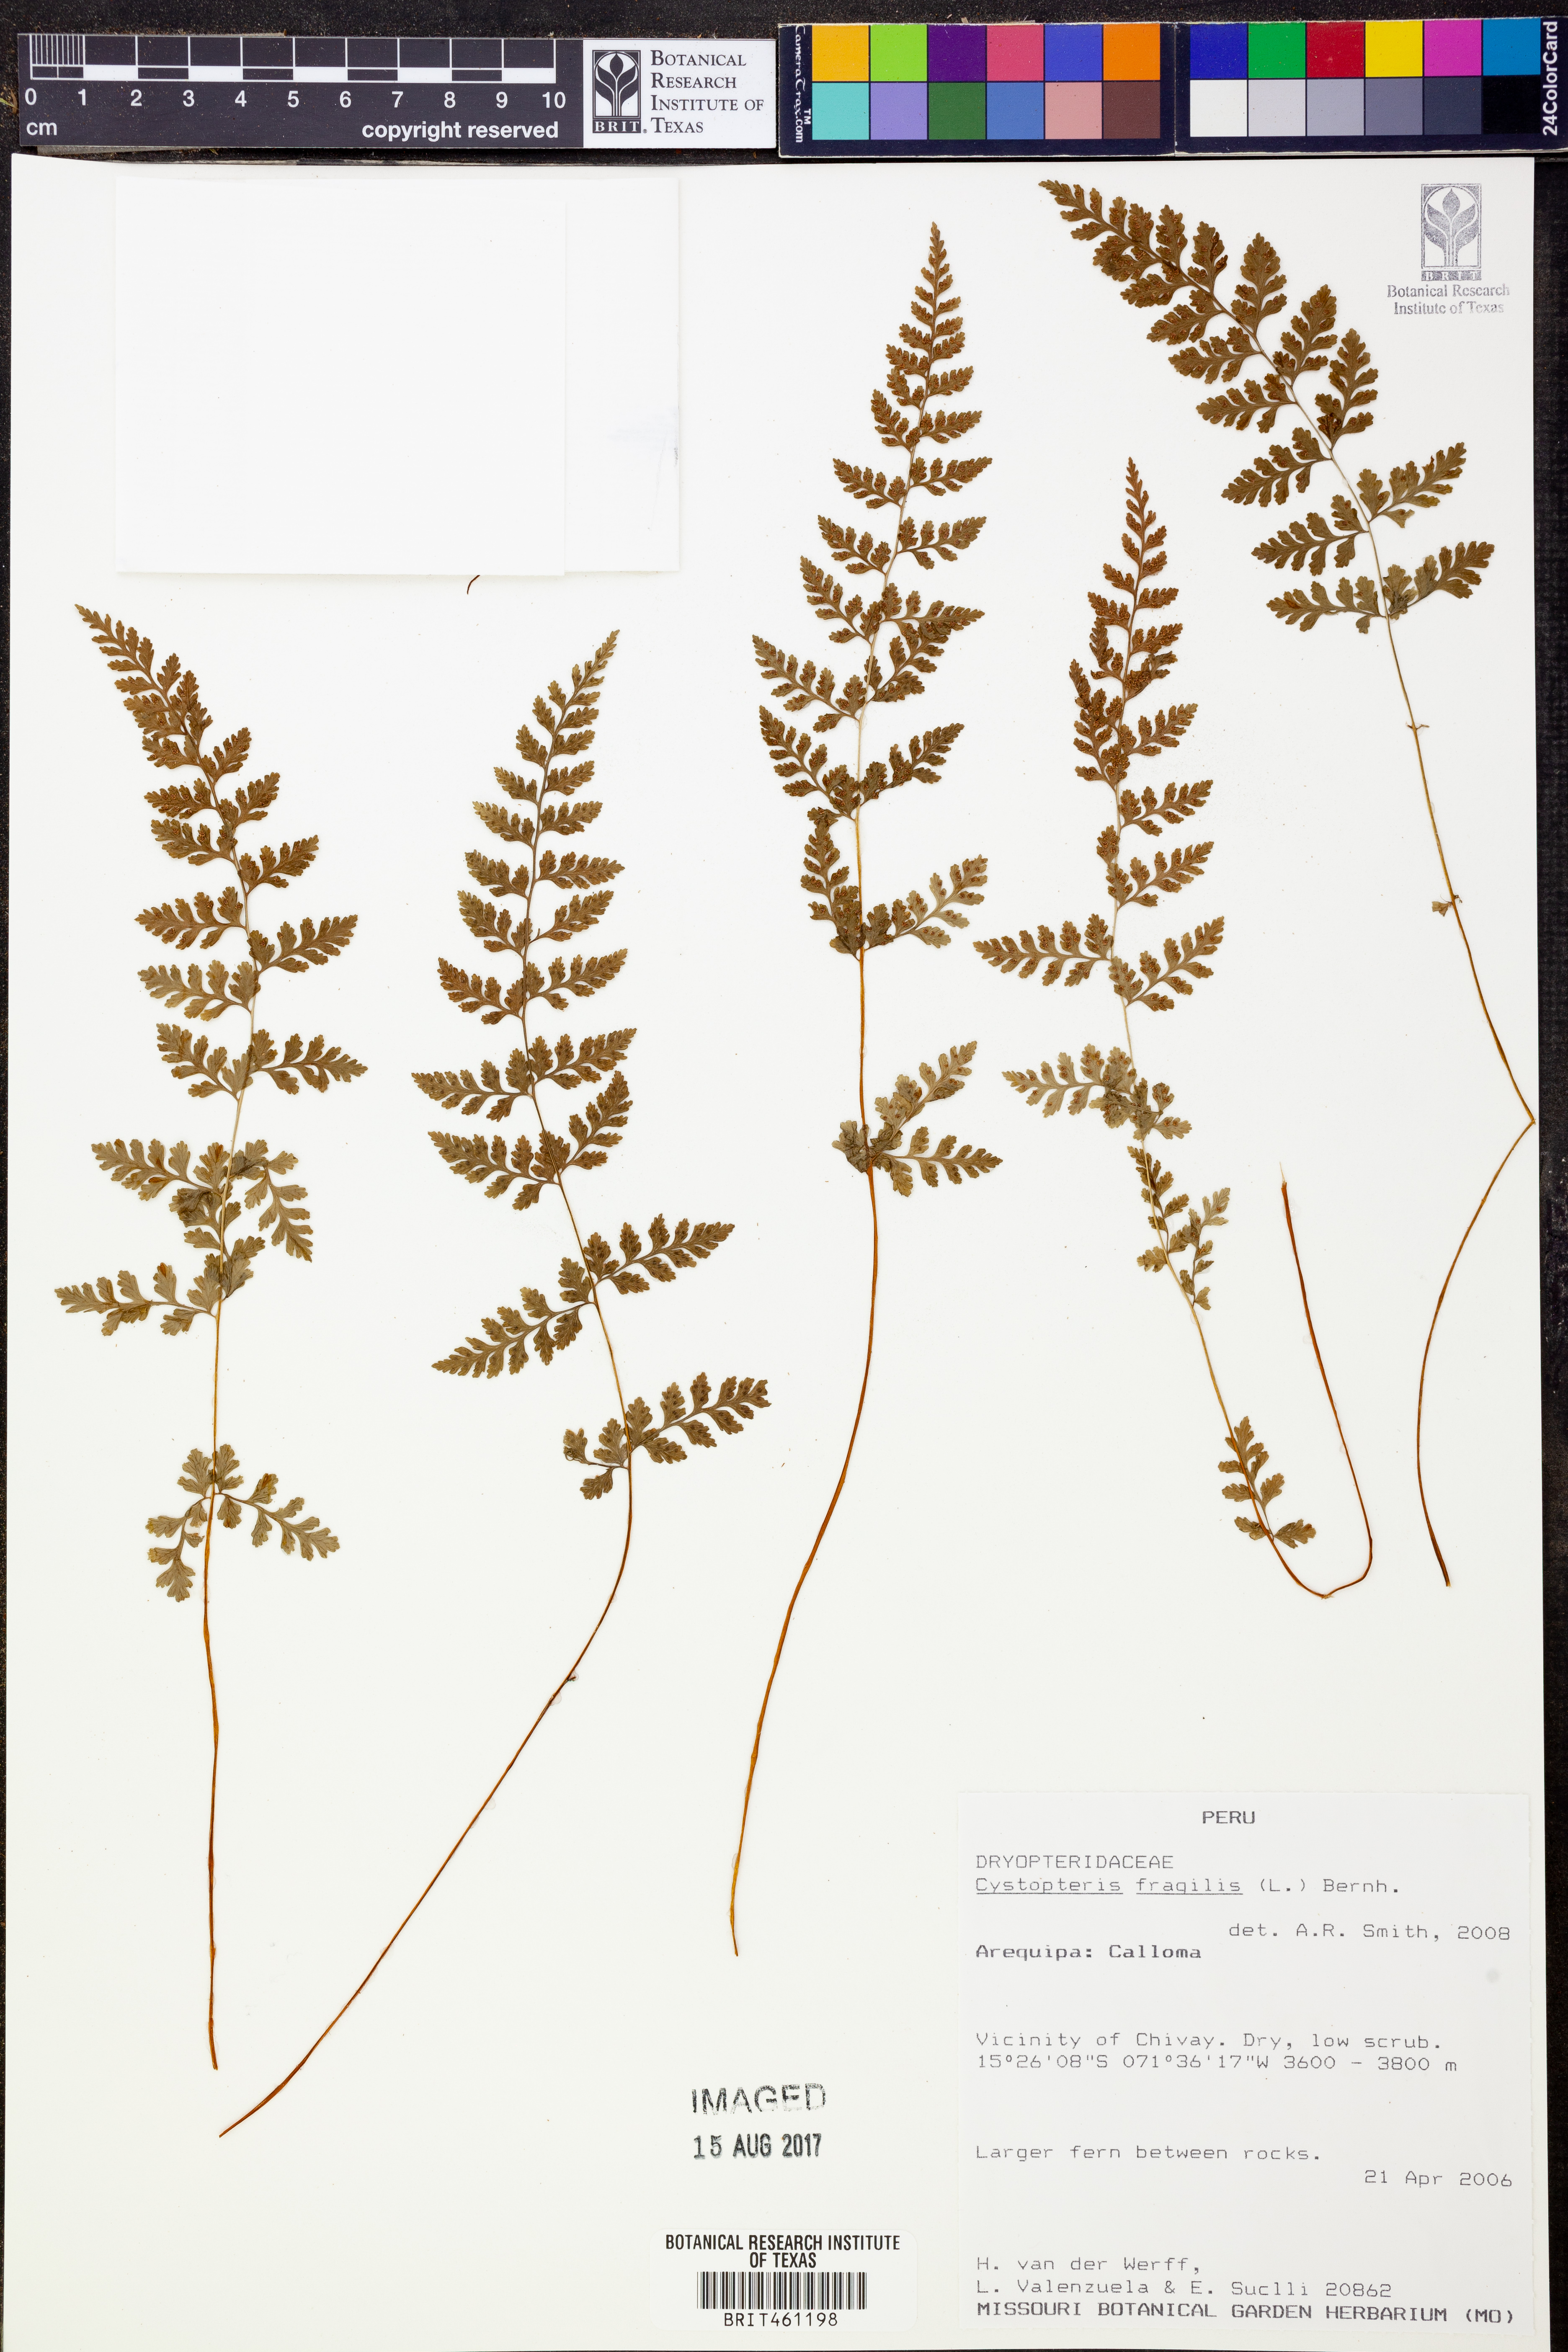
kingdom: Plantae
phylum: Tracheophyta
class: Polypodiopsida
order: Polypodiales
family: Cystopteridaceae
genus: Cystopteris
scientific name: Cystopteris fragilis
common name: Brittle bladder fern
